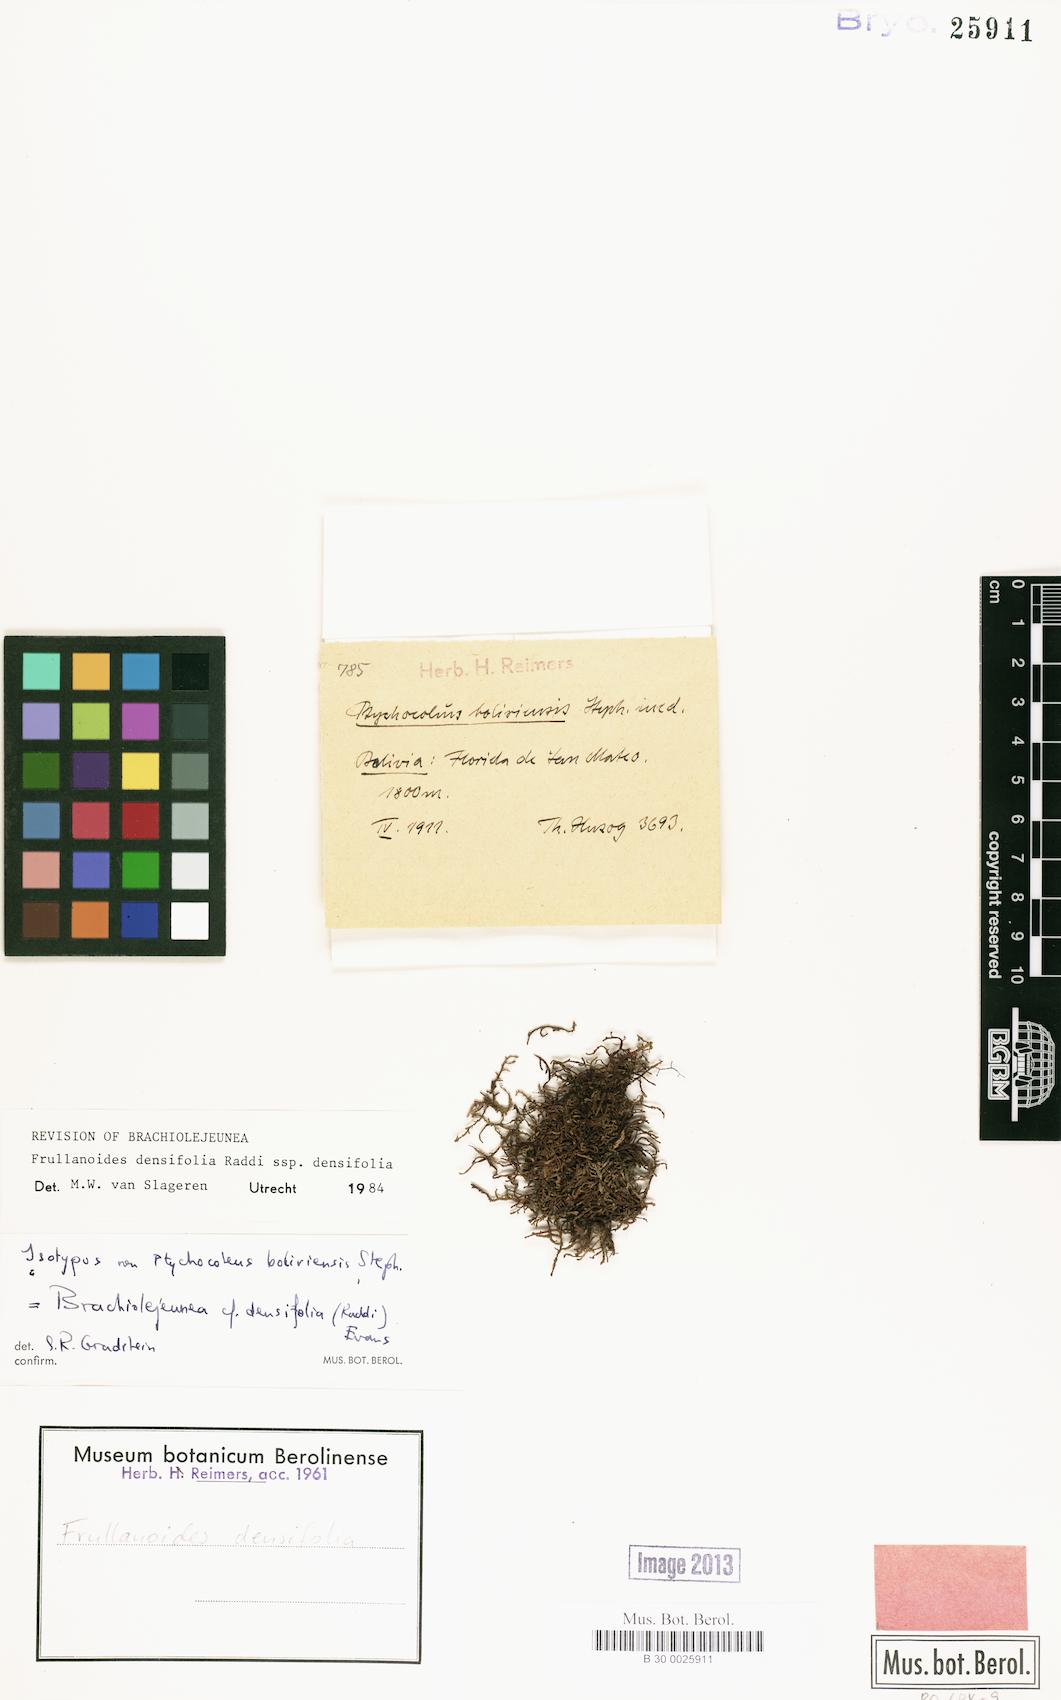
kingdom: Plantae
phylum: Marchantiophyta
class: Jungermanniopsida
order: Porellales
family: Lejeuneaceae
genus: Frullanoides
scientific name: Frullanoides densifolia
